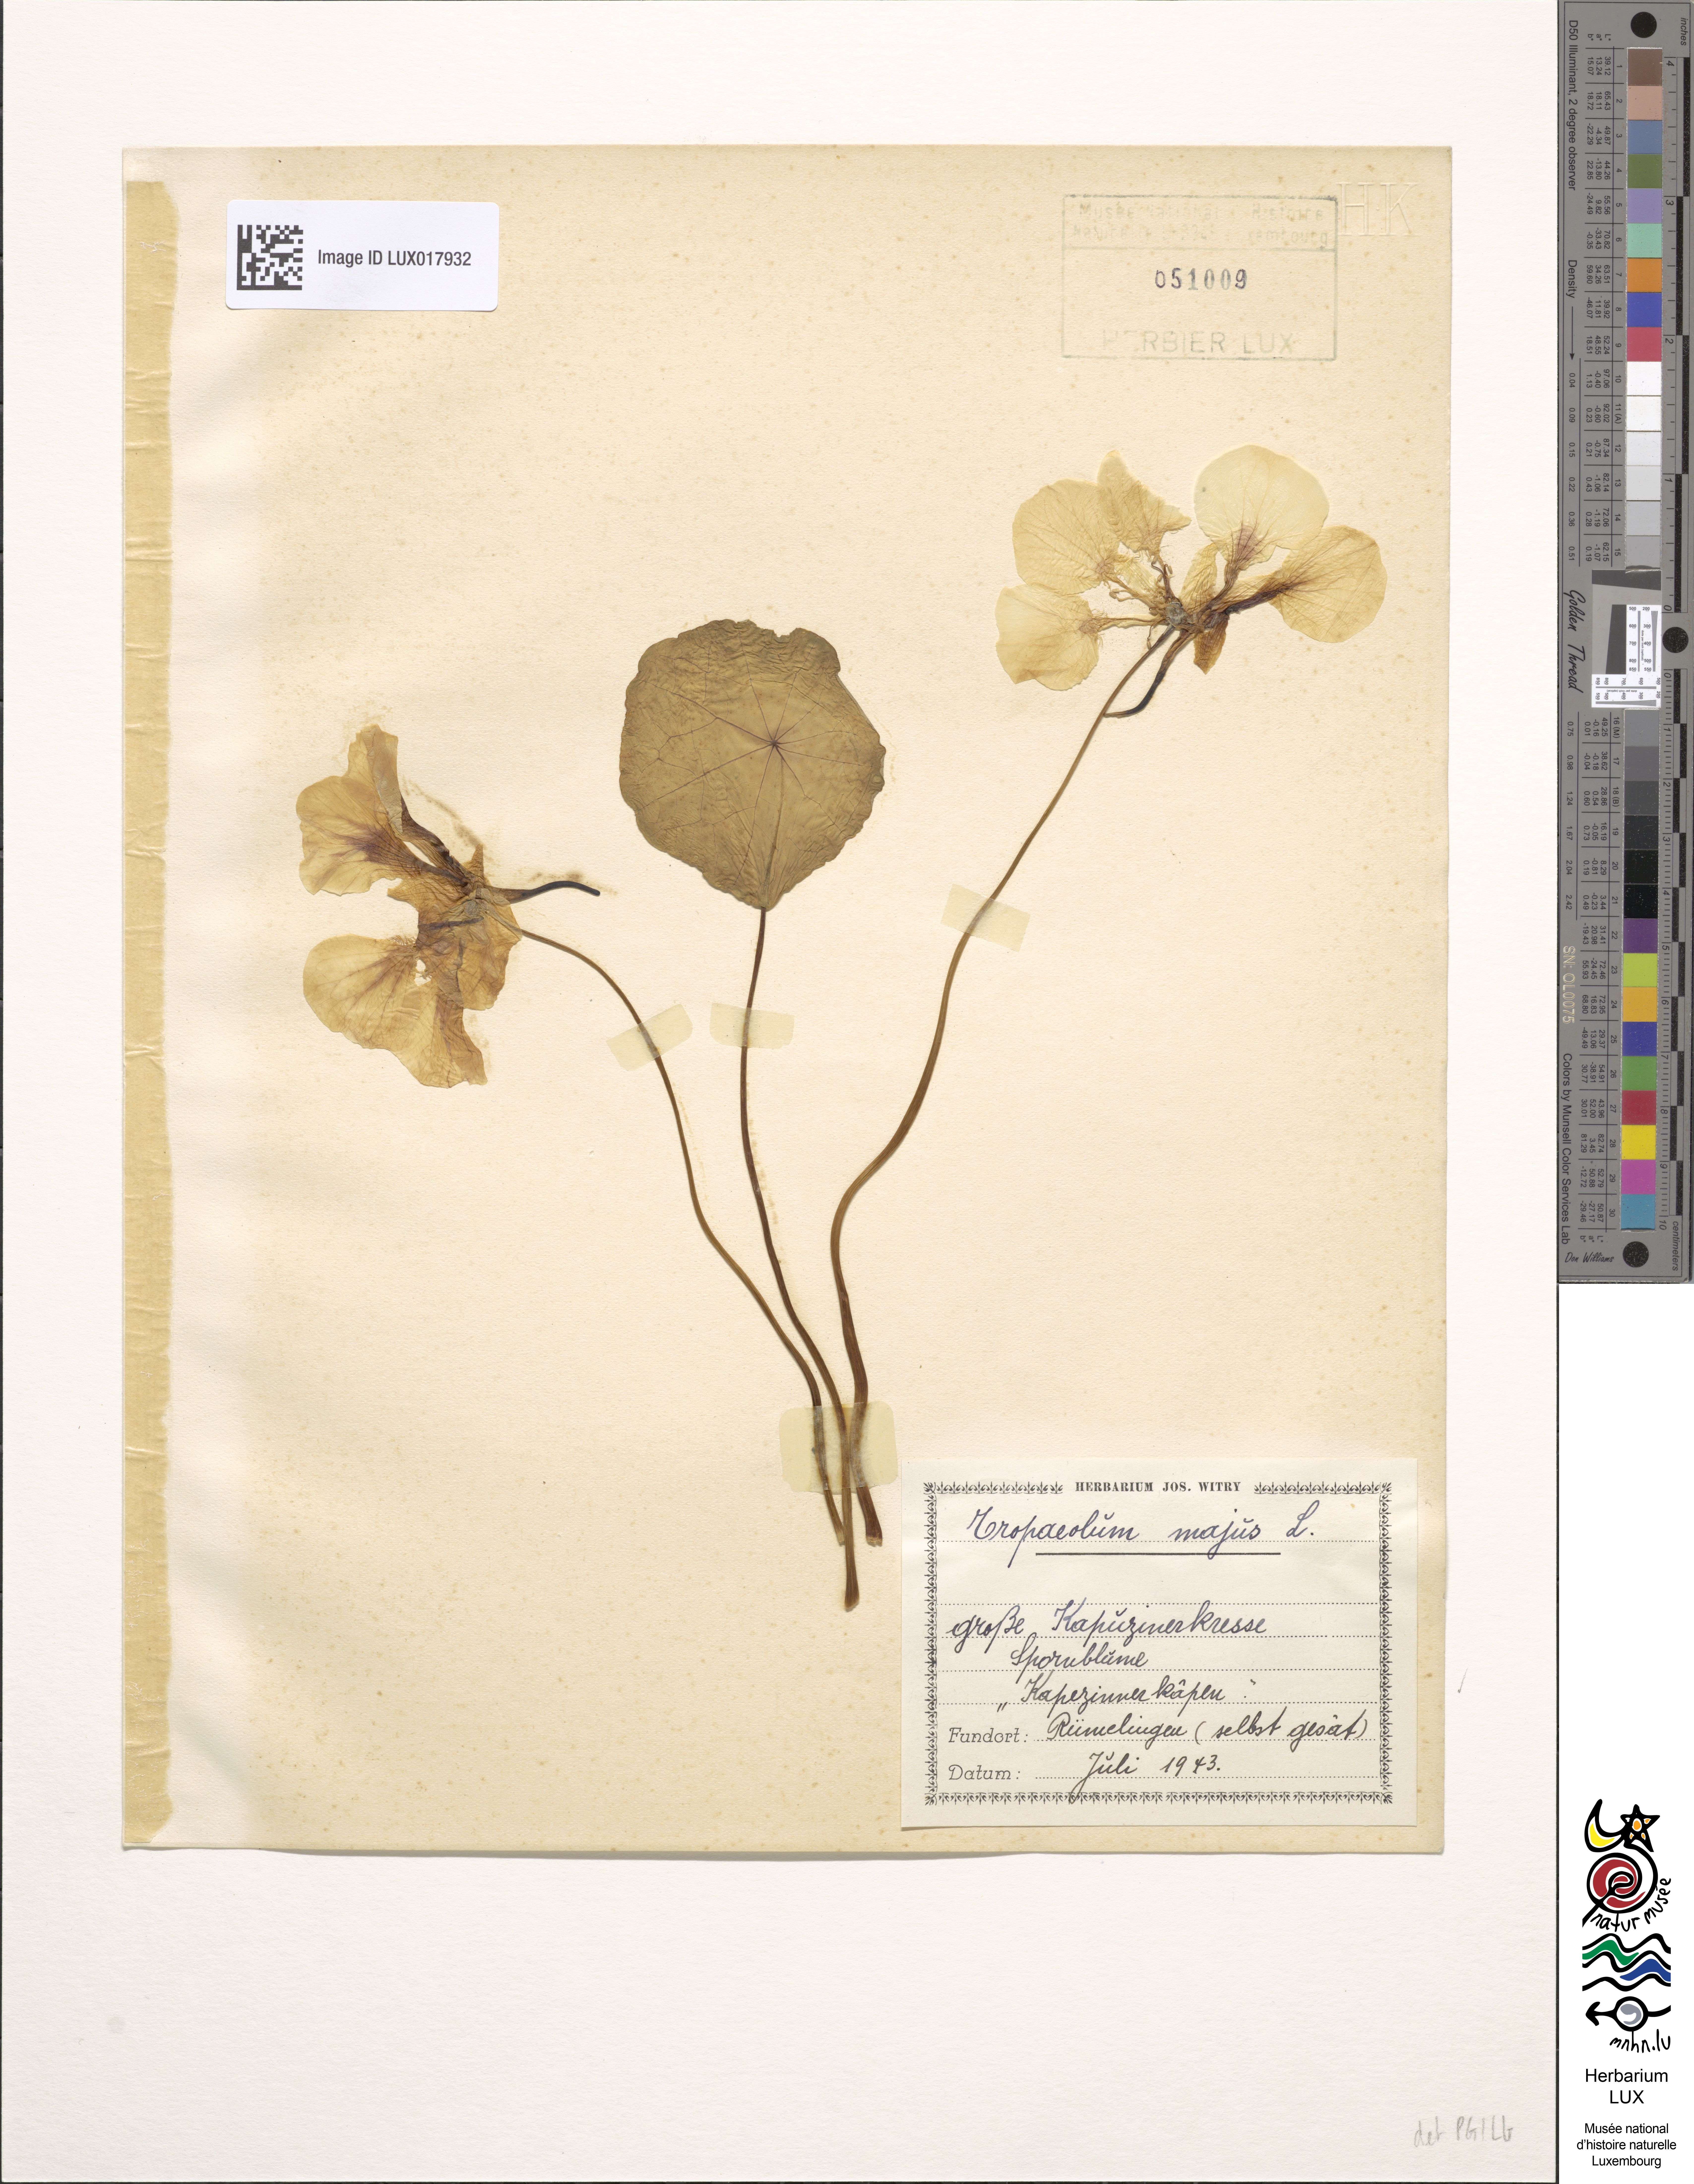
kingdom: Plantae
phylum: Tracheophyta
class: Magnoliopsida
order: Brassicales
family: Tropaeolaceae
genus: Tropaeolum
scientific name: Tropaeolum majus
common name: Nasturtium
